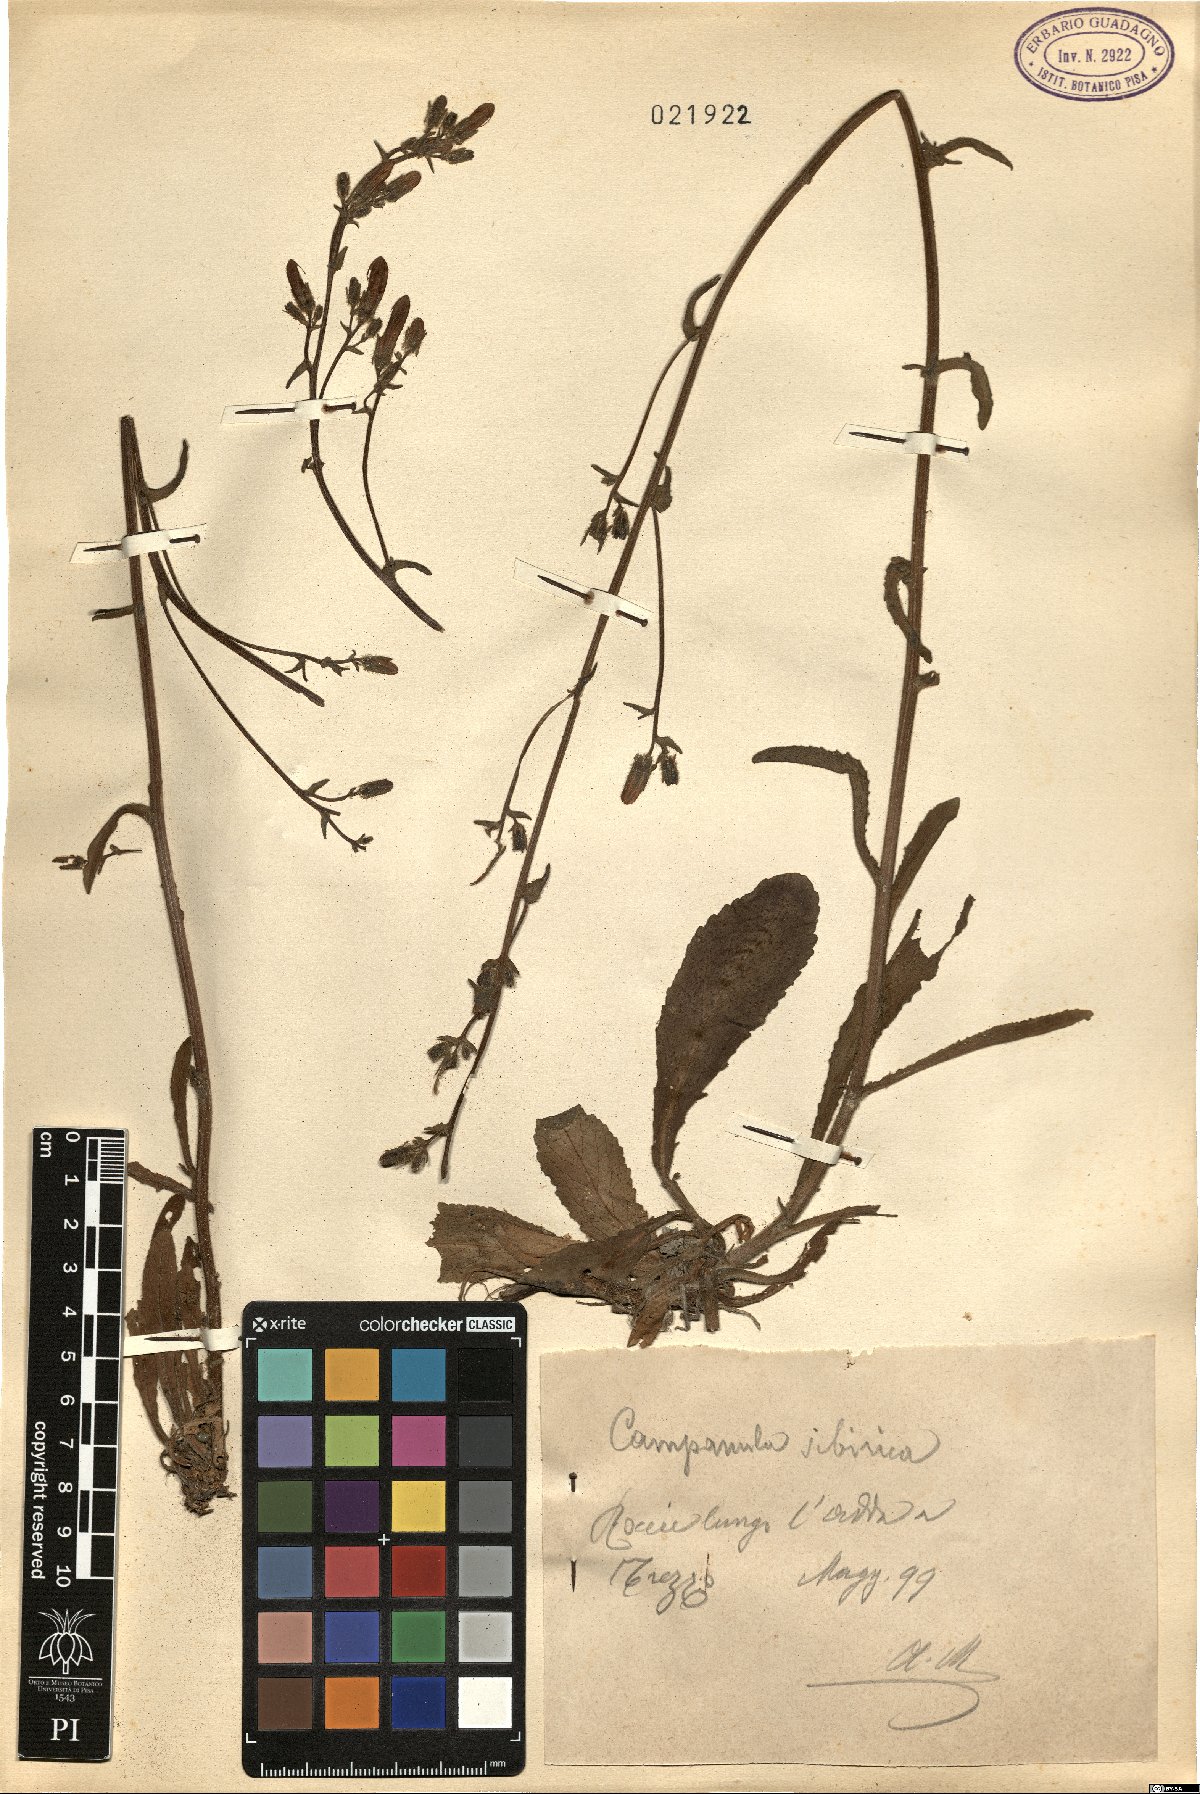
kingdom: Plantae
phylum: Tracheophyta
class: Magnoliopsida
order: Asterales
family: Campanulaceae
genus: Campanula
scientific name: Campanula sibirica
